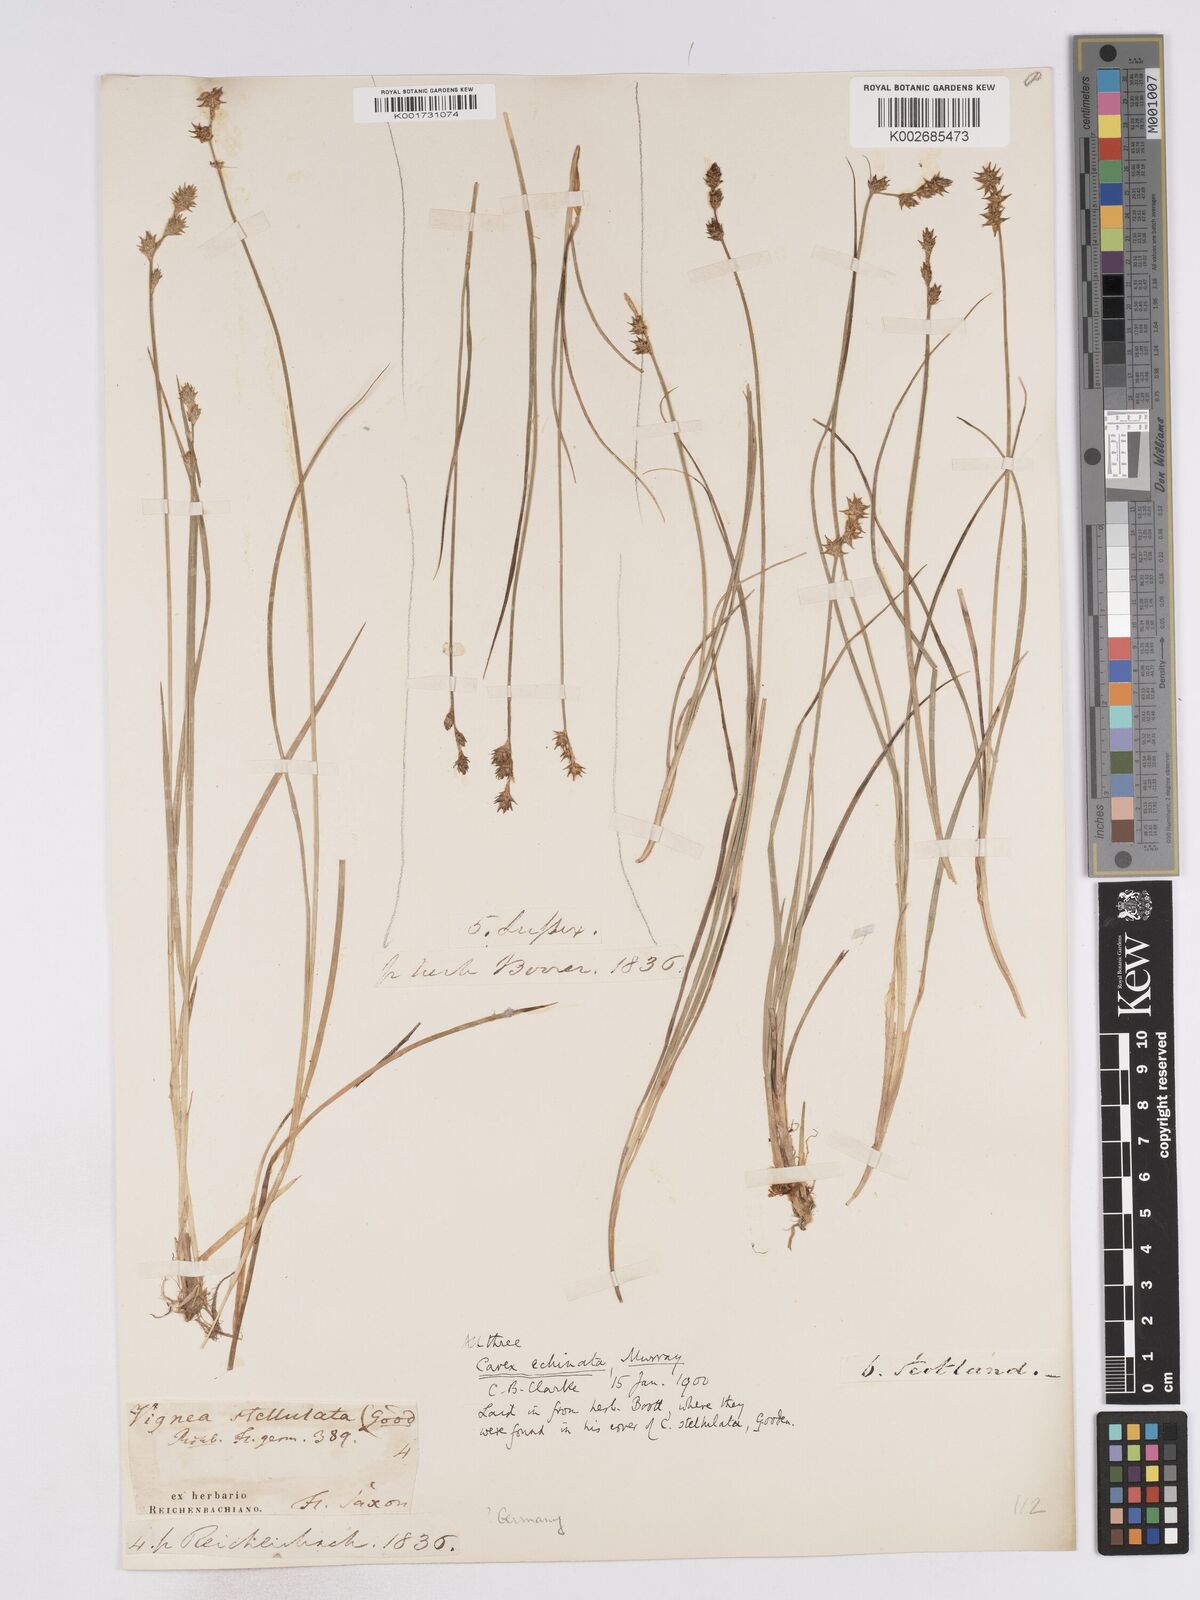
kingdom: Plantae
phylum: Tracheophyta
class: Liliopsida
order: Poales
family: Cyperaceae
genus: Carex
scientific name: Carex echinata
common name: Star sedge
